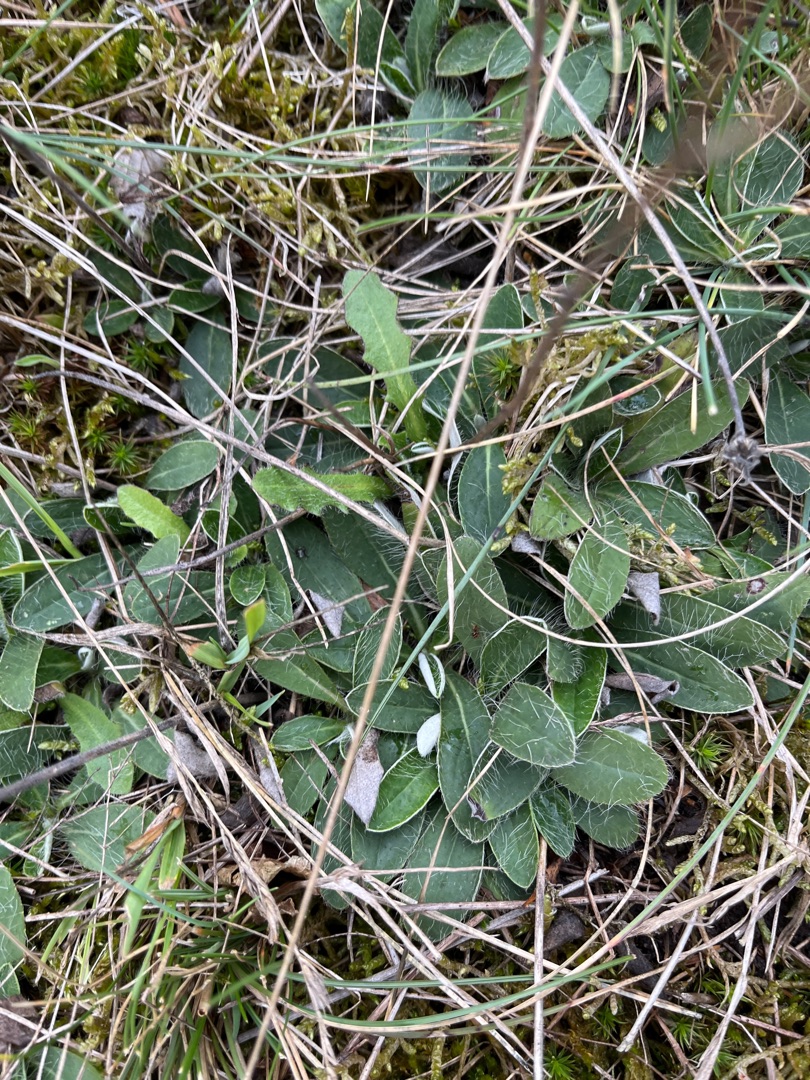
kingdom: Plantae
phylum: Tracheophyta
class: Magnoliopsida
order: Asterales
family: Asteraceae
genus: Pilosella
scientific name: Pilosella officinarum
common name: Håret høgeurt
